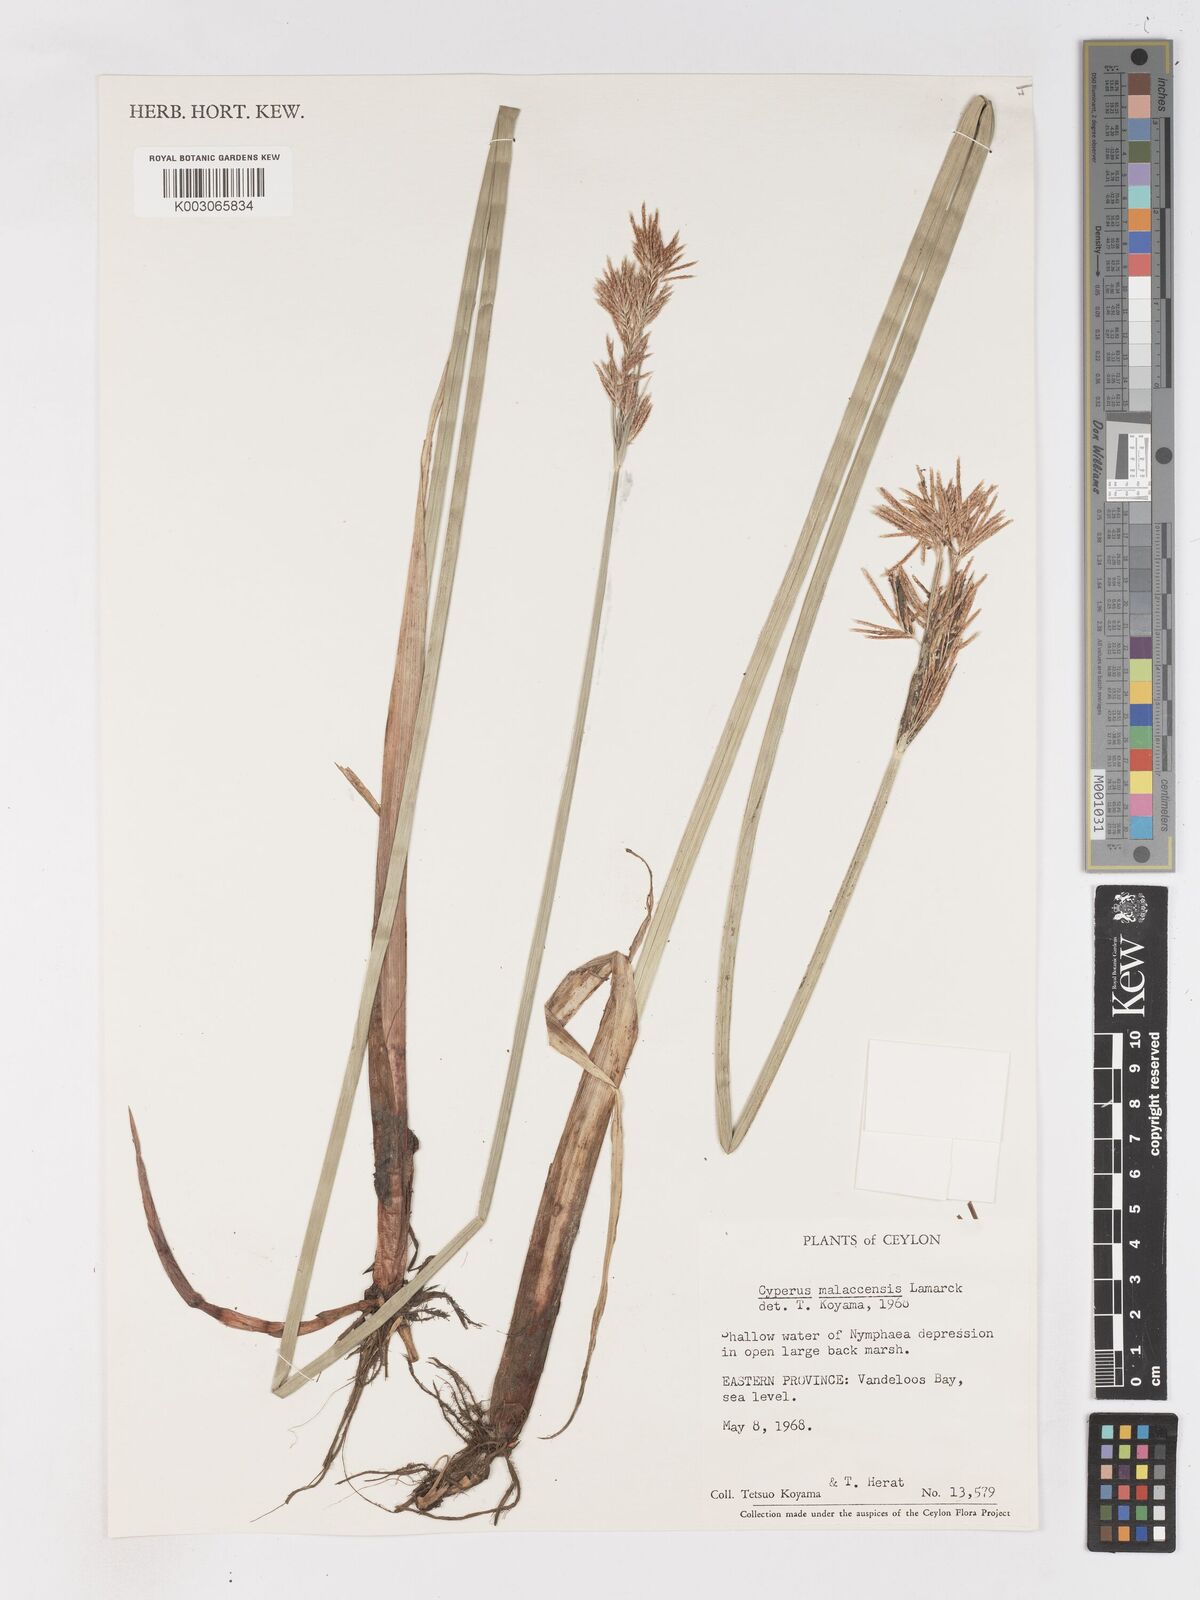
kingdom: Plantae
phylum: Tracheophyta
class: Liliopsida
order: Poales
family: Cyperaceae
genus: Cyperus
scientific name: Cyperus malaccensis
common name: Shichito matgrass
